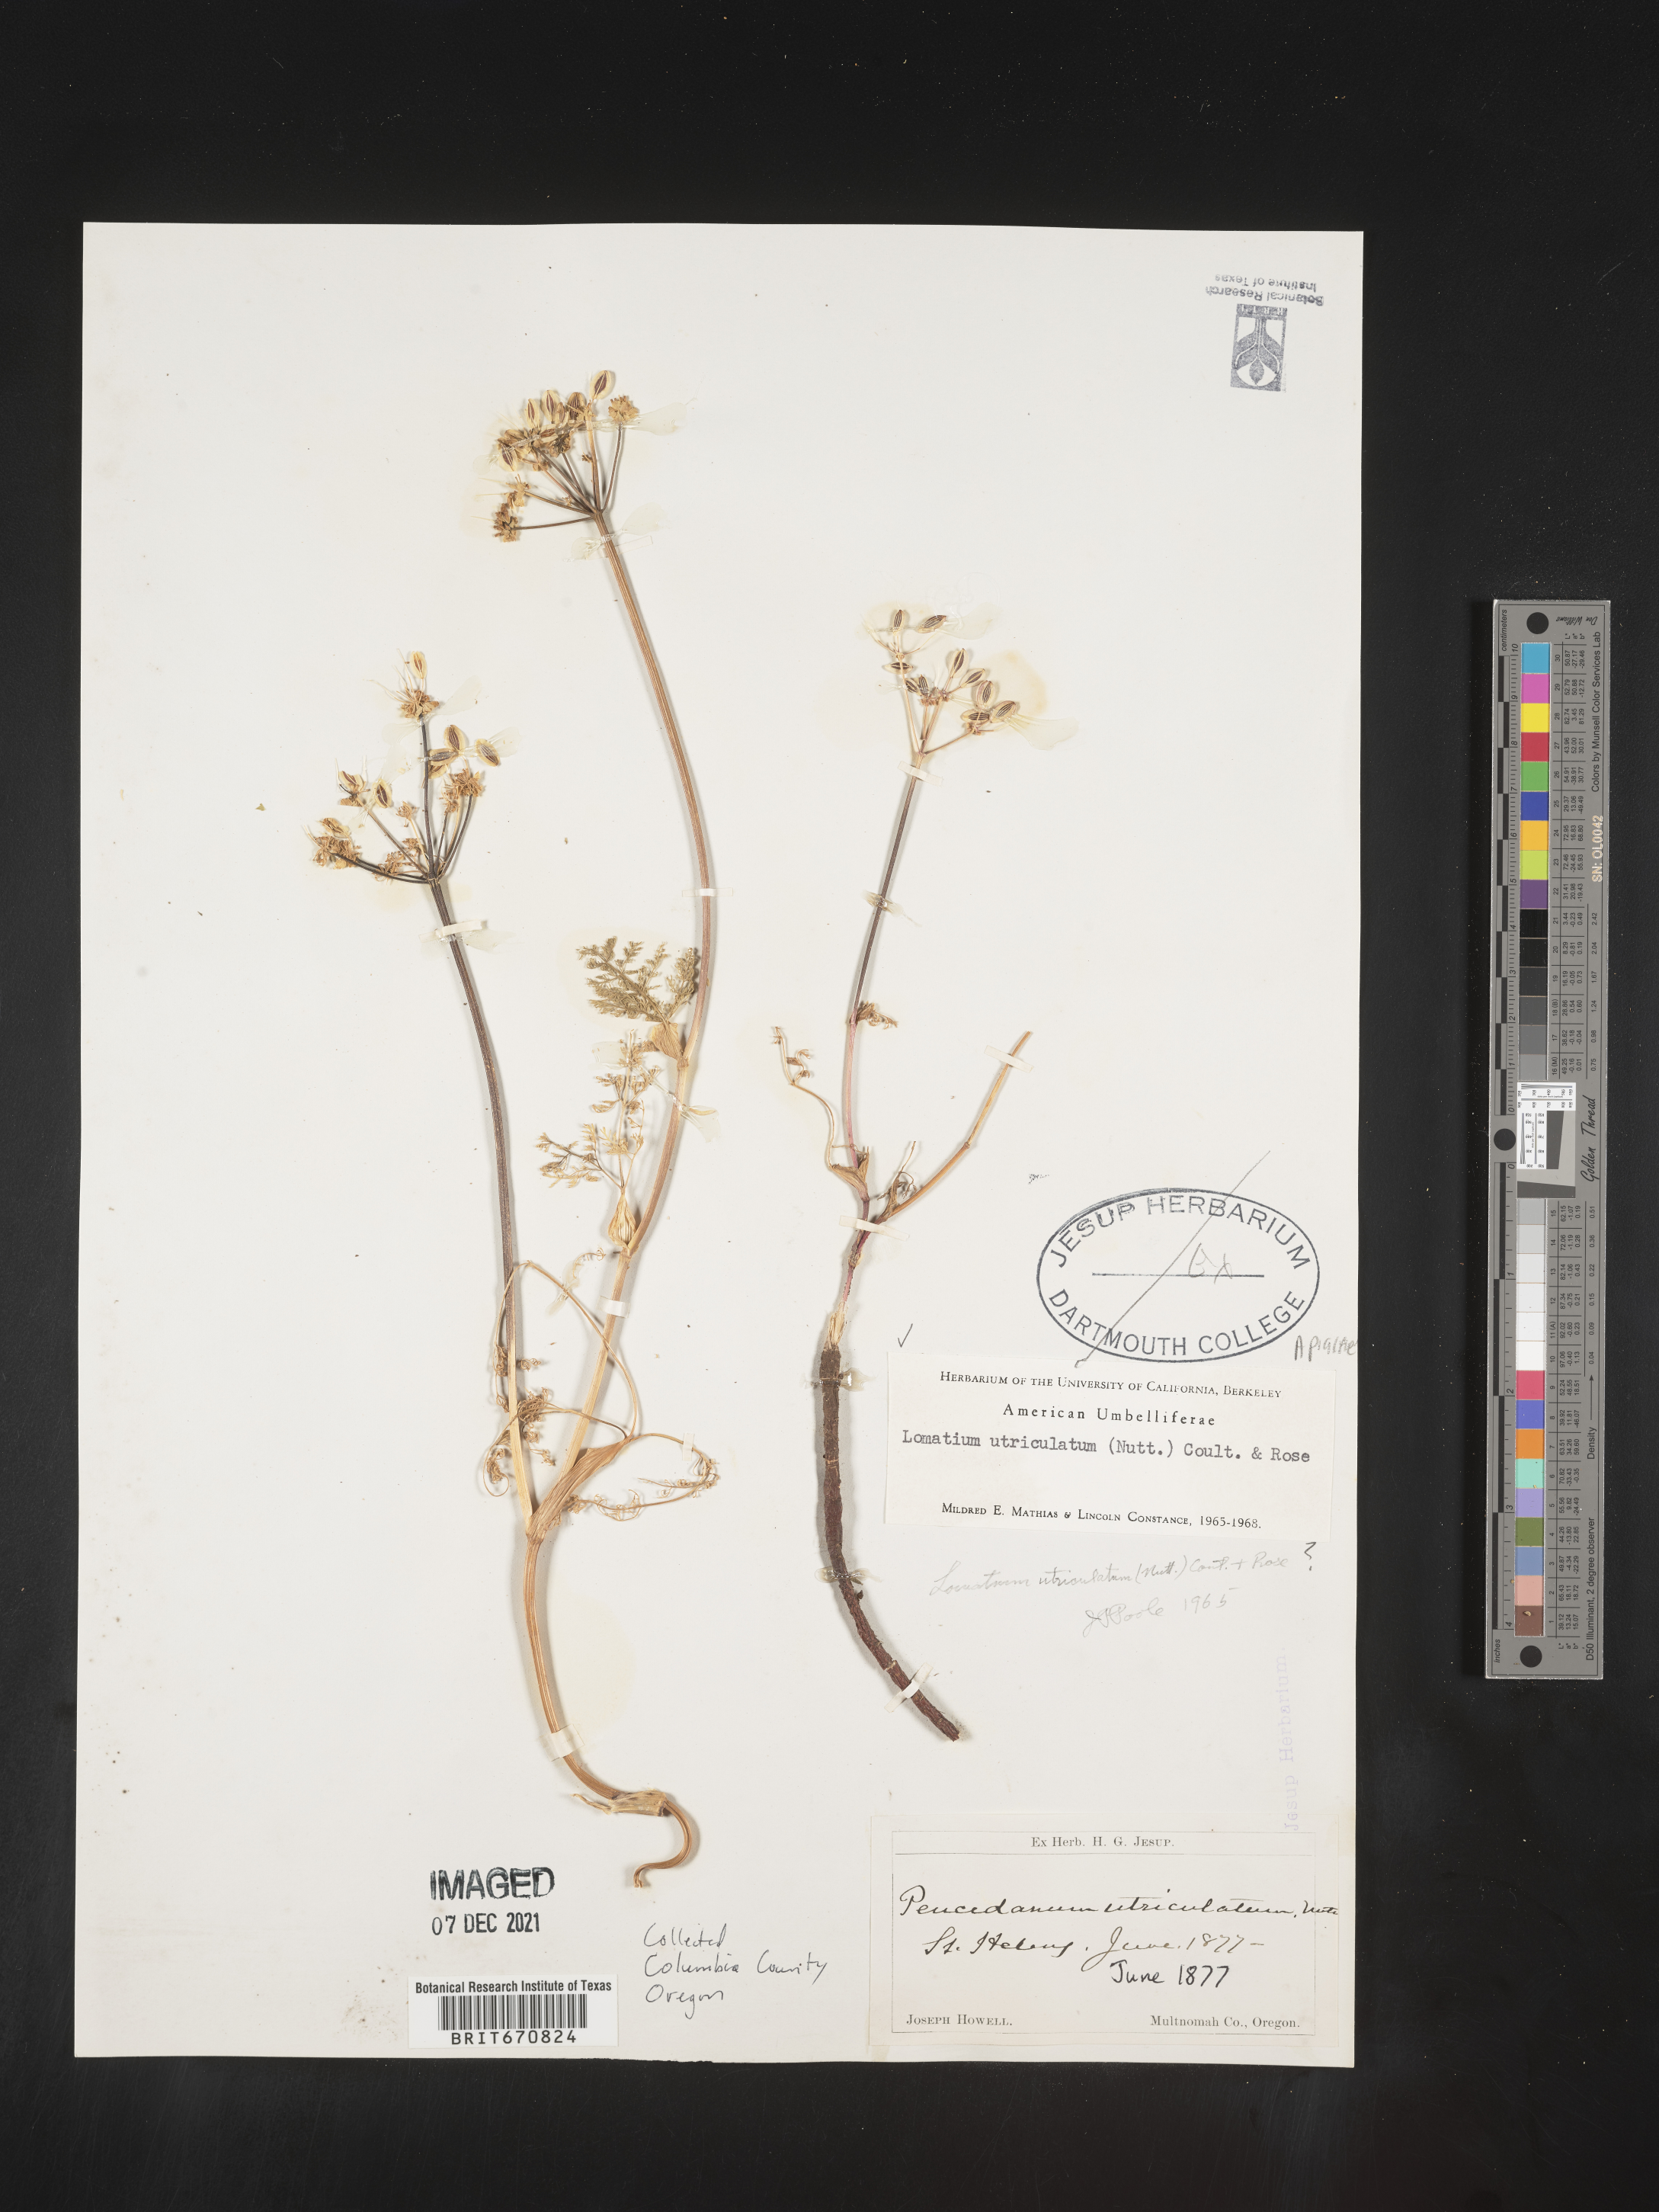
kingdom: Plantae
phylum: Tracheophyta
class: Magnoliopsida
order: Apiales
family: Apiaceae
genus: Lomatium
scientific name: Lomatium utriculatum
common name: Fine-leaf desert-parsley
